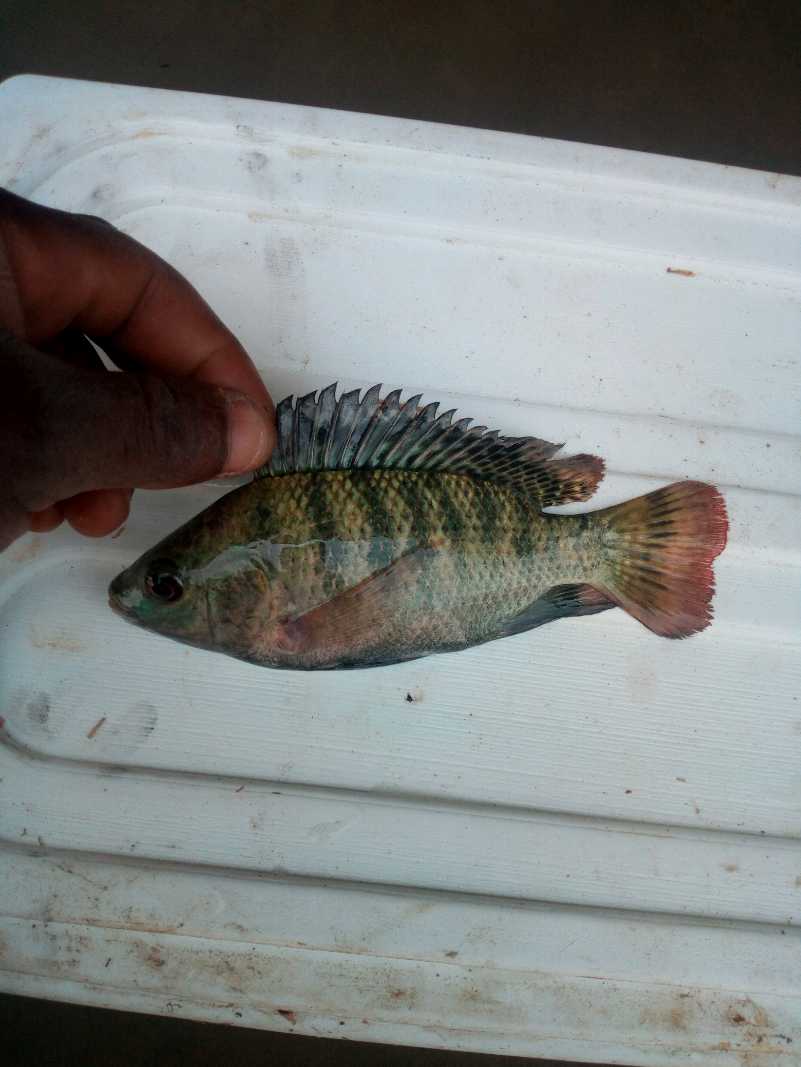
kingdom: Animalia
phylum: Chordata
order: Perciformes
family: Cichlidae
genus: Oreochromis
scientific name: Oreochromis
